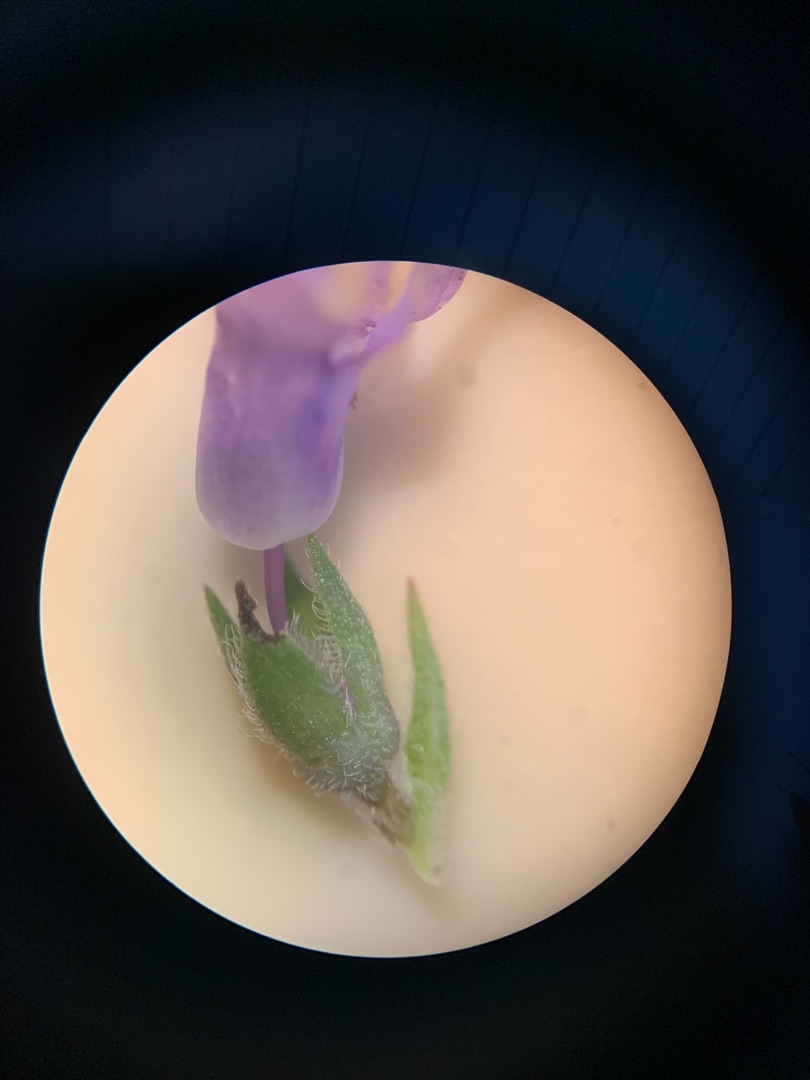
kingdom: Plantae
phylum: Tracheophyta
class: Magnoliopsida
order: Lamiales
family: Plantaginaceae
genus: Veronica
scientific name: Veronica longifolia
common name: Langbladet ærenpris
